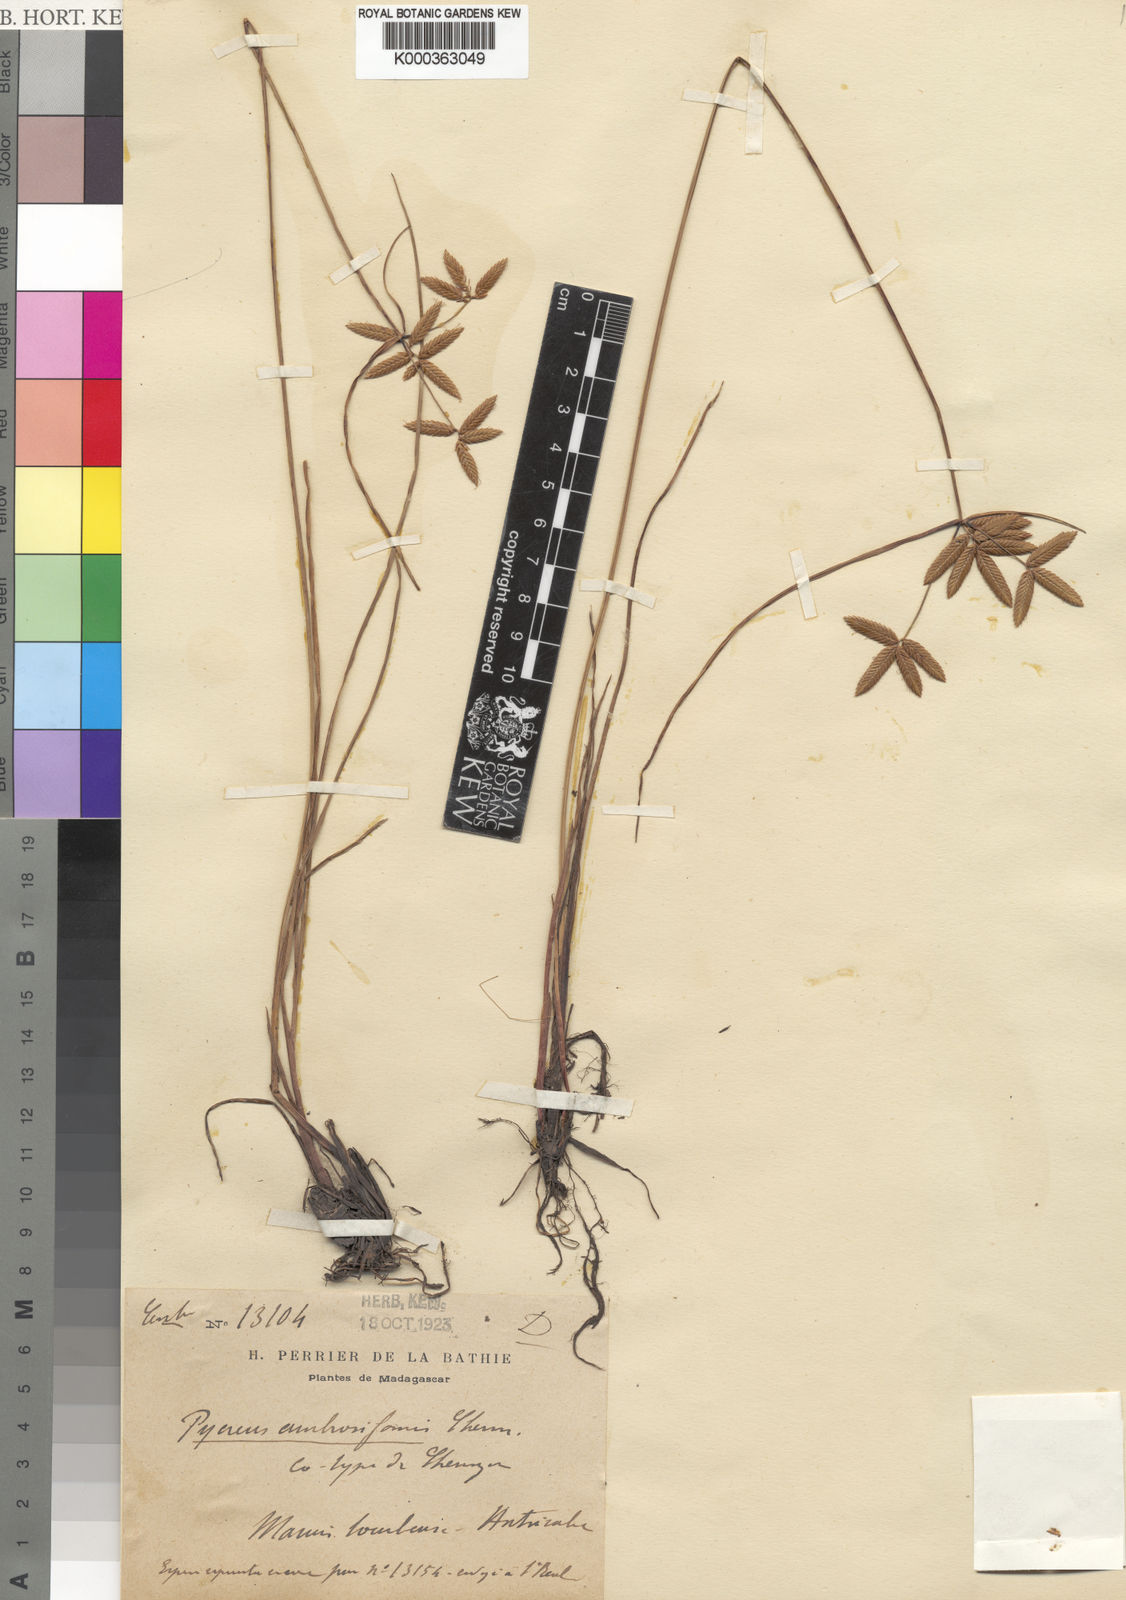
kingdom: Plantae
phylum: Tracheophyta
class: Liliopsida
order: Poales
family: Cyperaceae
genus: Cyperus
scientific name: Cyperus unioloides
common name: Uniola flatsedge
